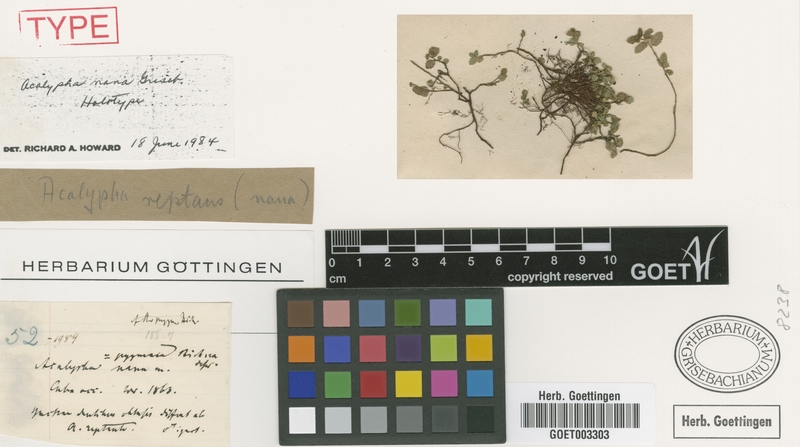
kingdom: Plantae
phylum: Tracheophyta
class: Magnoliopsida
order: Malpighiales
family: Euphorbiaceae
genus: Acalypha
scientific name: Acalypha nana
